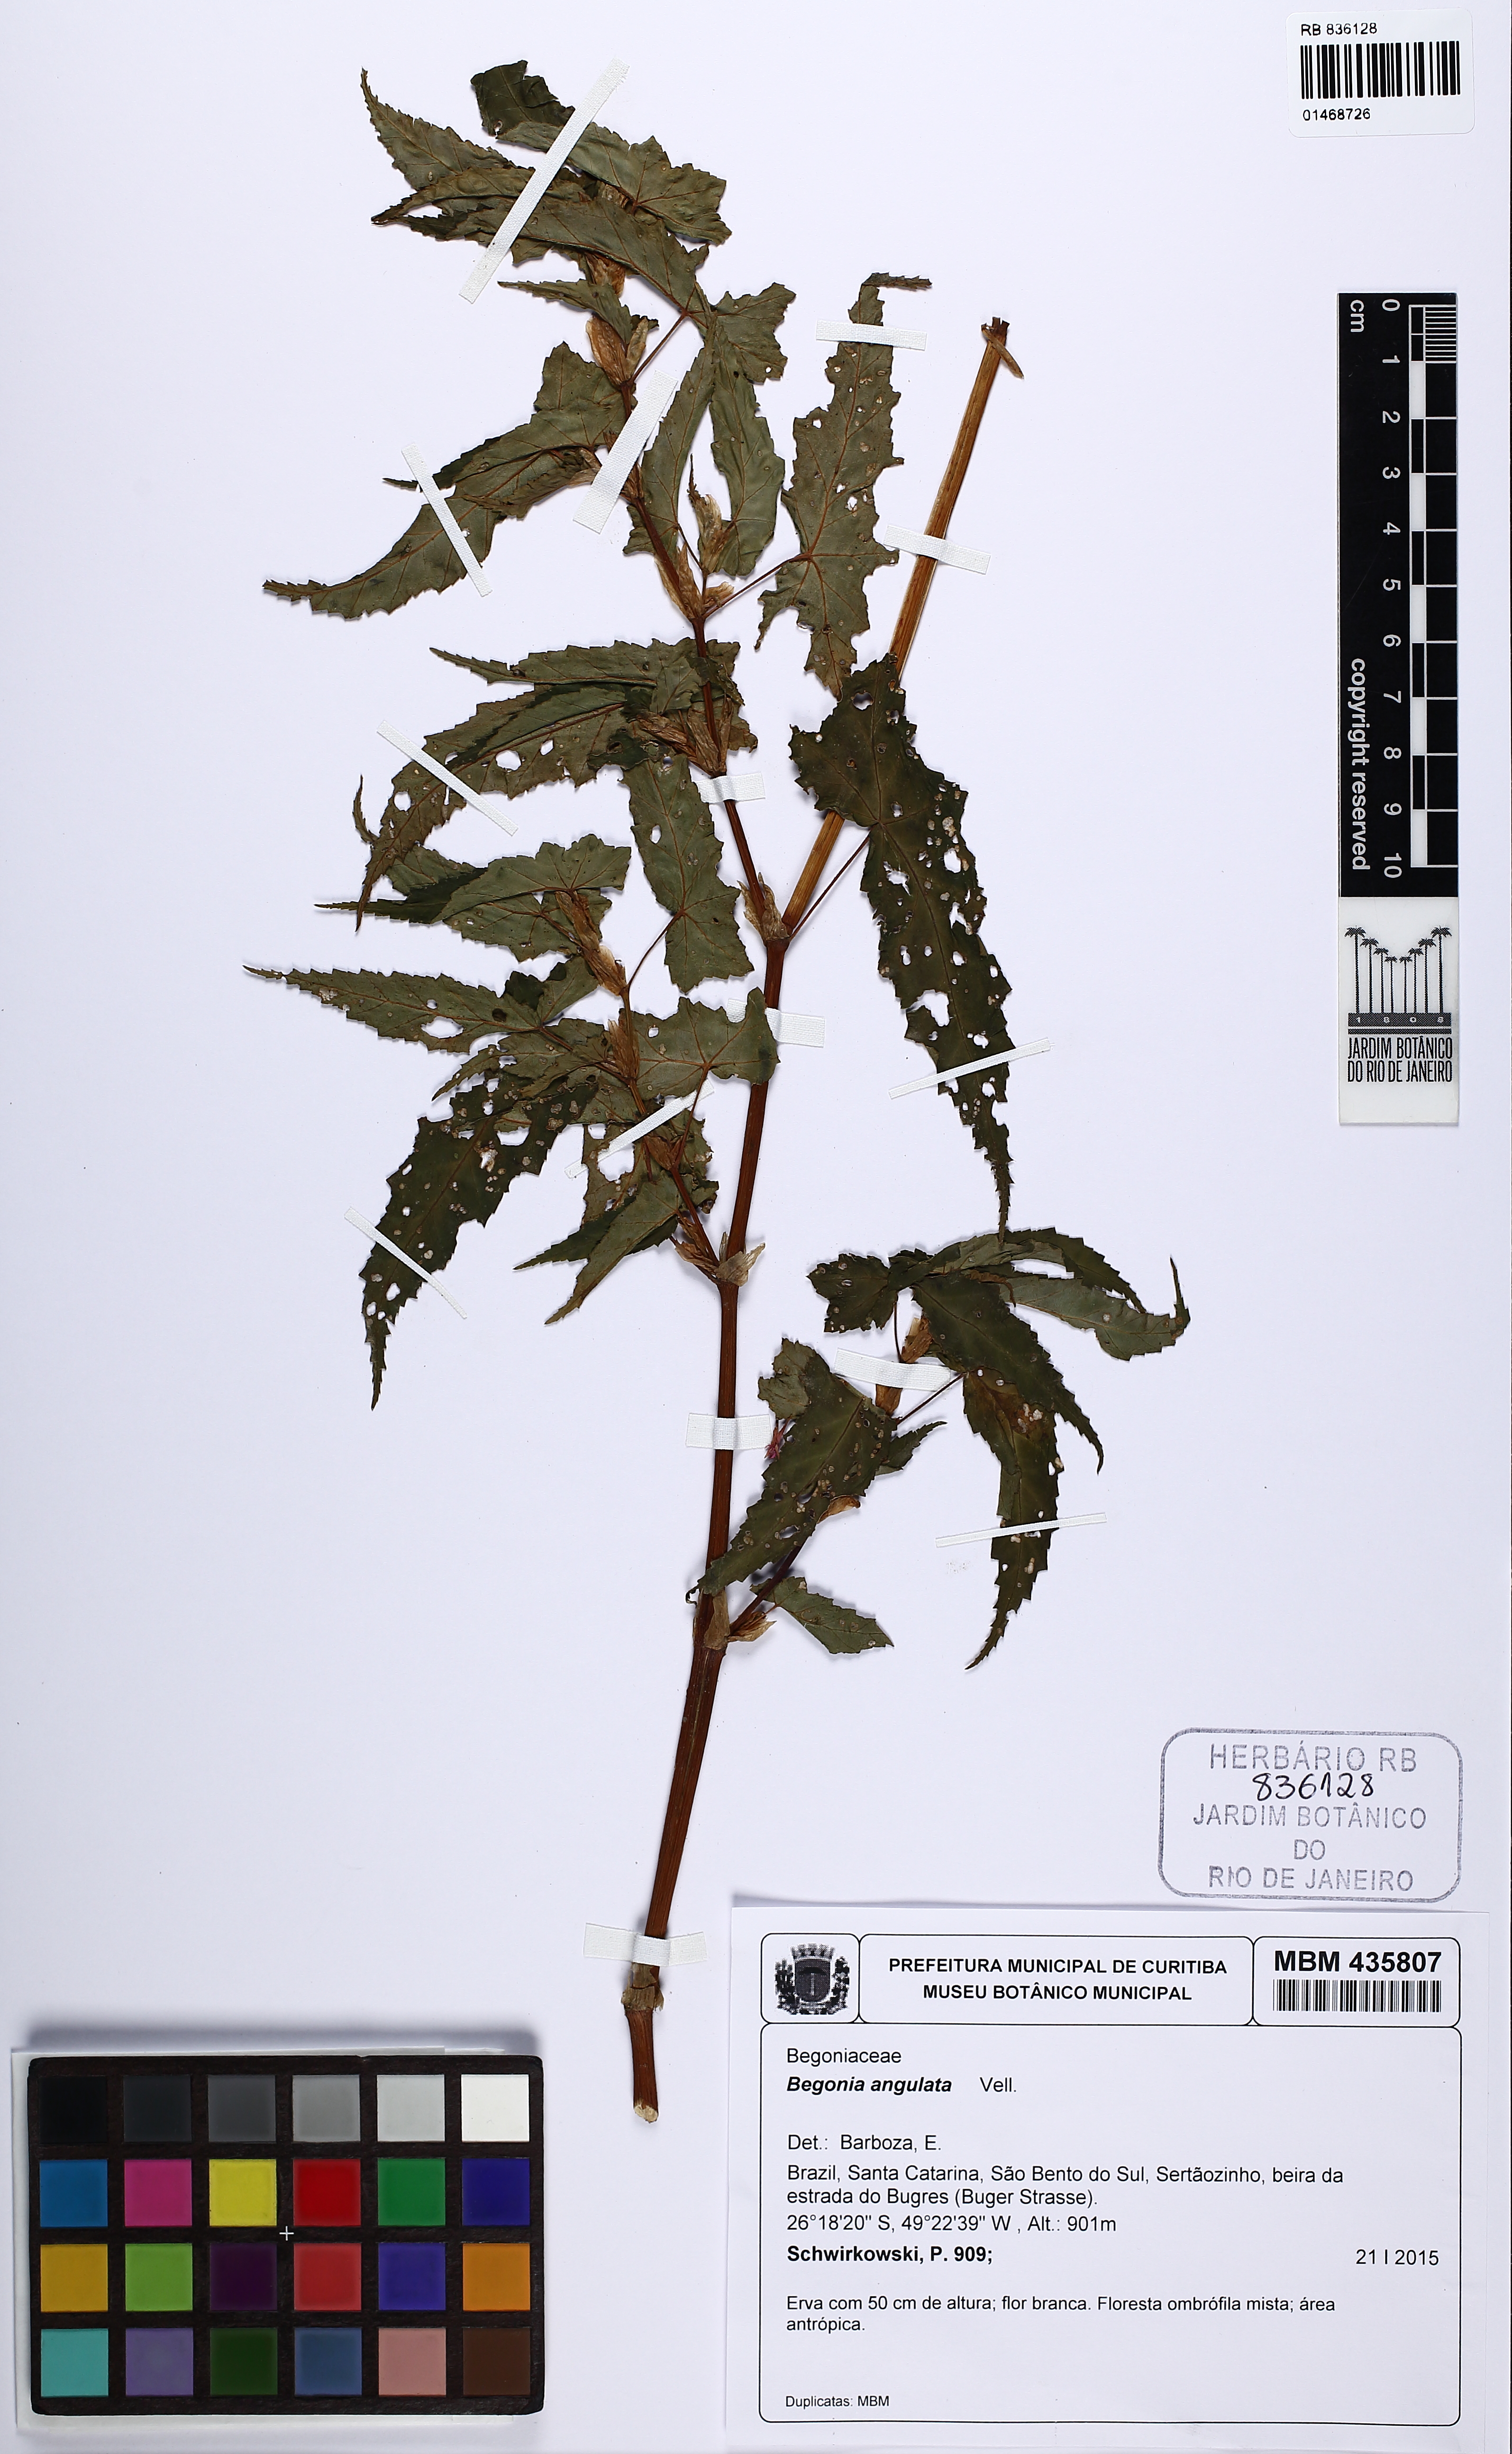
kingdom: Plantae
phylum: Tracheophyta
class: Magnoliopsida
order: Cucurbitales
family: Begoniaceae
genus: Begonia
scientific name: Begonia angulata
